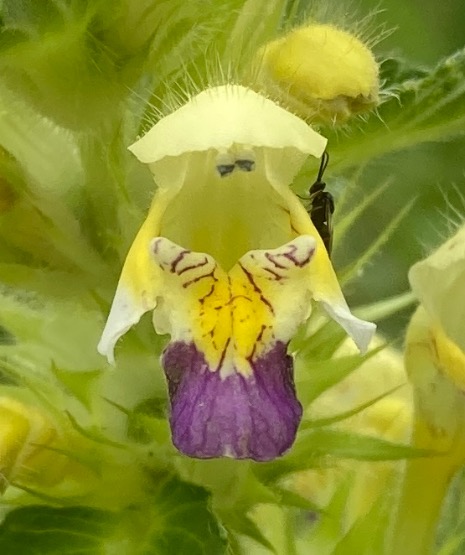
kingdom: Plantae
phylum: Tracheophyta
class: Magnoliopsida
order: Lamiales
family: Lamiaceae
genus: Galeopsis
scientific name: Galeopsis speciosa
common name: Hamp-hanekro
